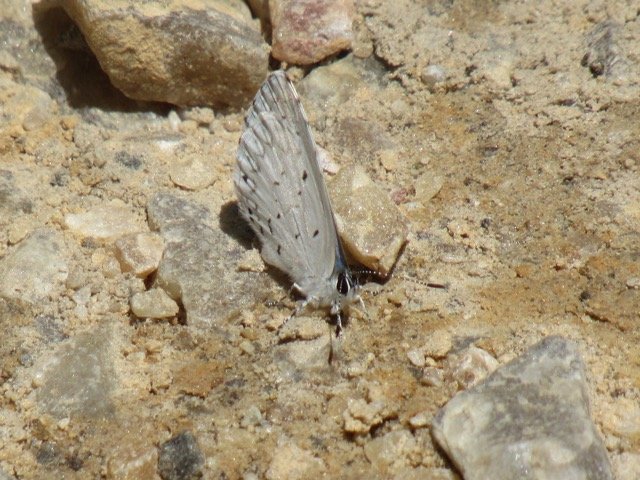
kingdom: Animalia
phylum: Arthropoda
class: Insecta
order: Lepidoptera
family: Lycaenidae
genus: Cyaniris
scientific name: Cyaniris neglecta
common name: Summer Azure
